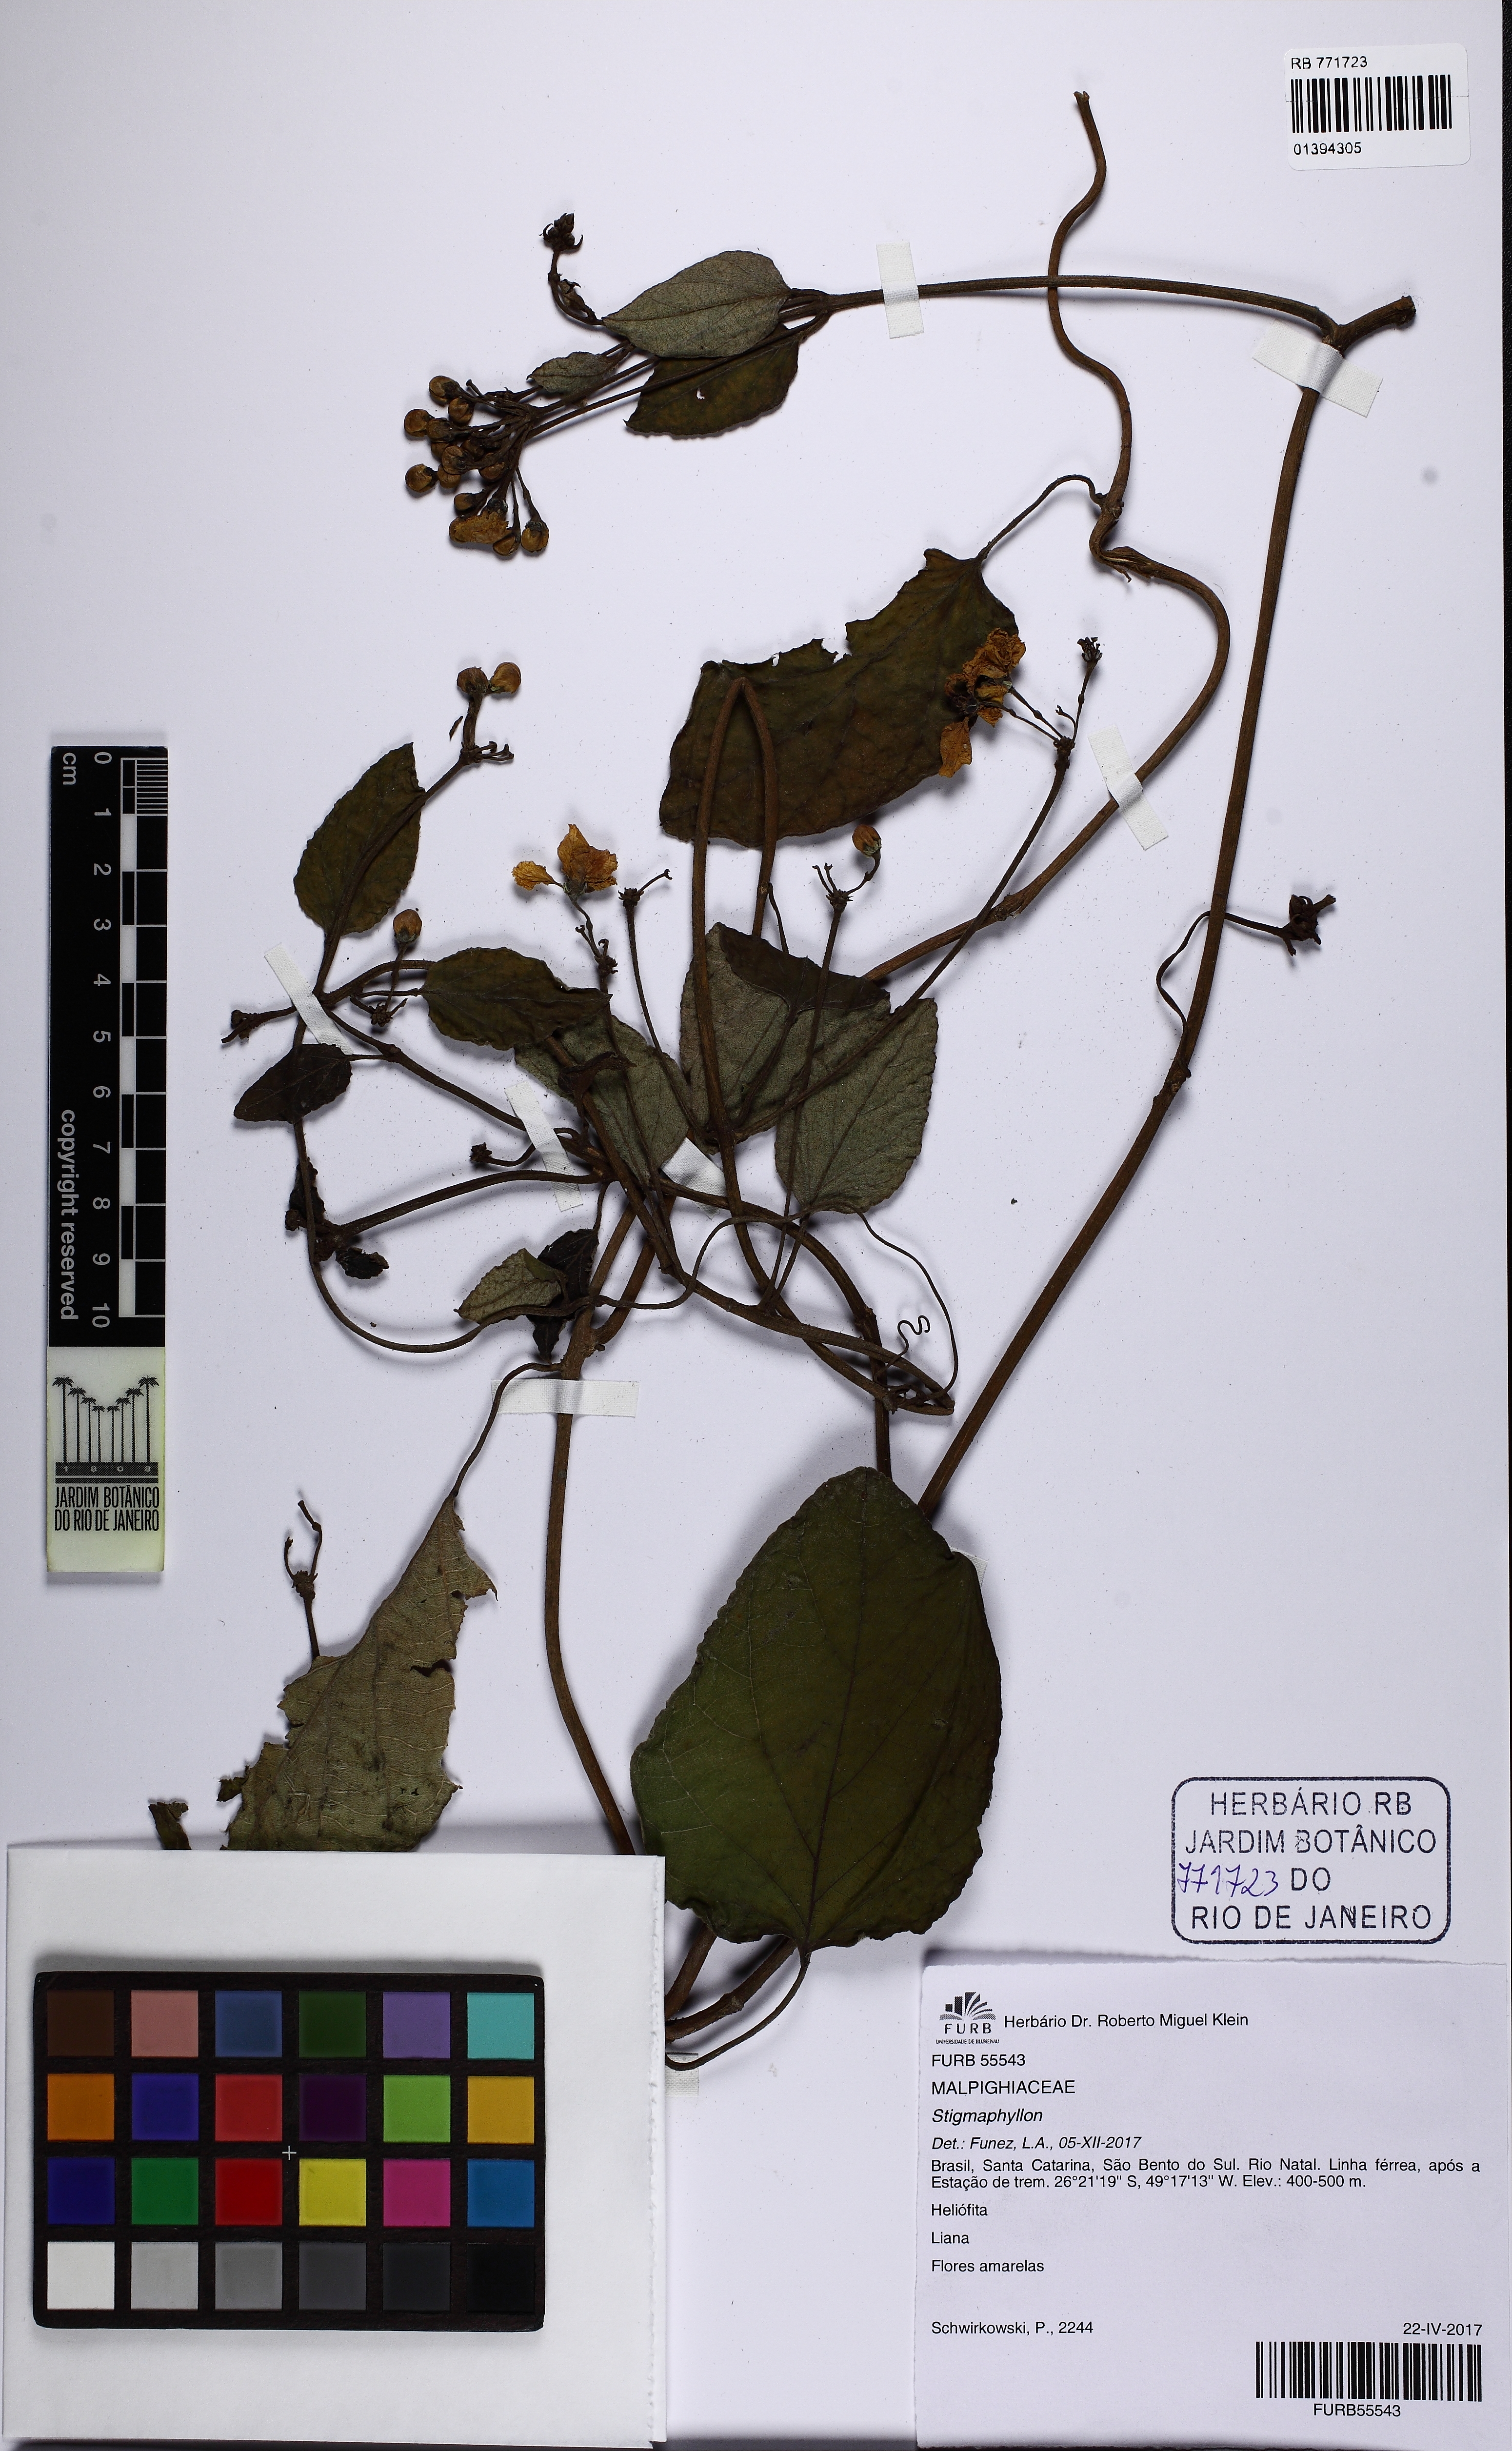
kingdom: Plantae
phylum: Tracheophyta
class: Magnoliopsida
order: Malpighiales
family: Malpighiaceae
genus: Stigmaphyllon
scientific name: Stigmaphyllon
